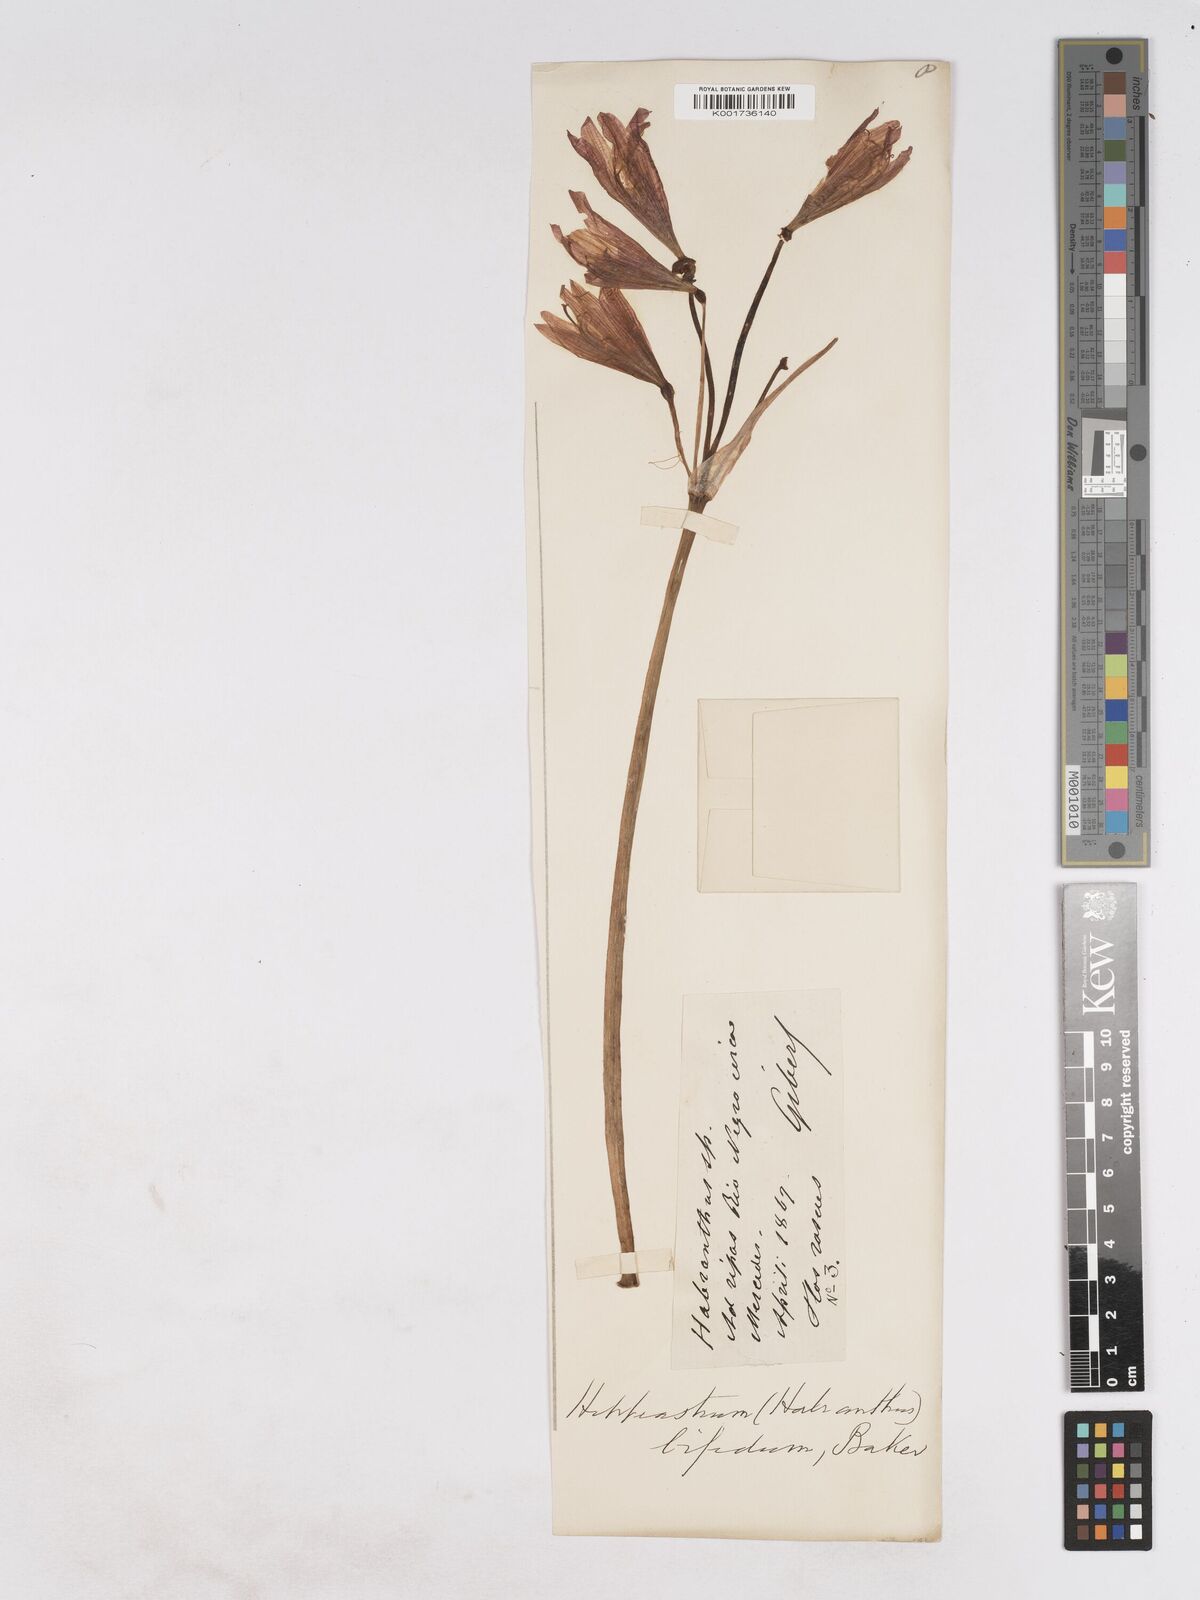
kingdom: Plantae
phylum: Tracheophyta
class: Liliopsida
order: Asparagales
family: Amaryllidaceae
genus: Zephyranthes
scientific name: Zephyranthes bifida
